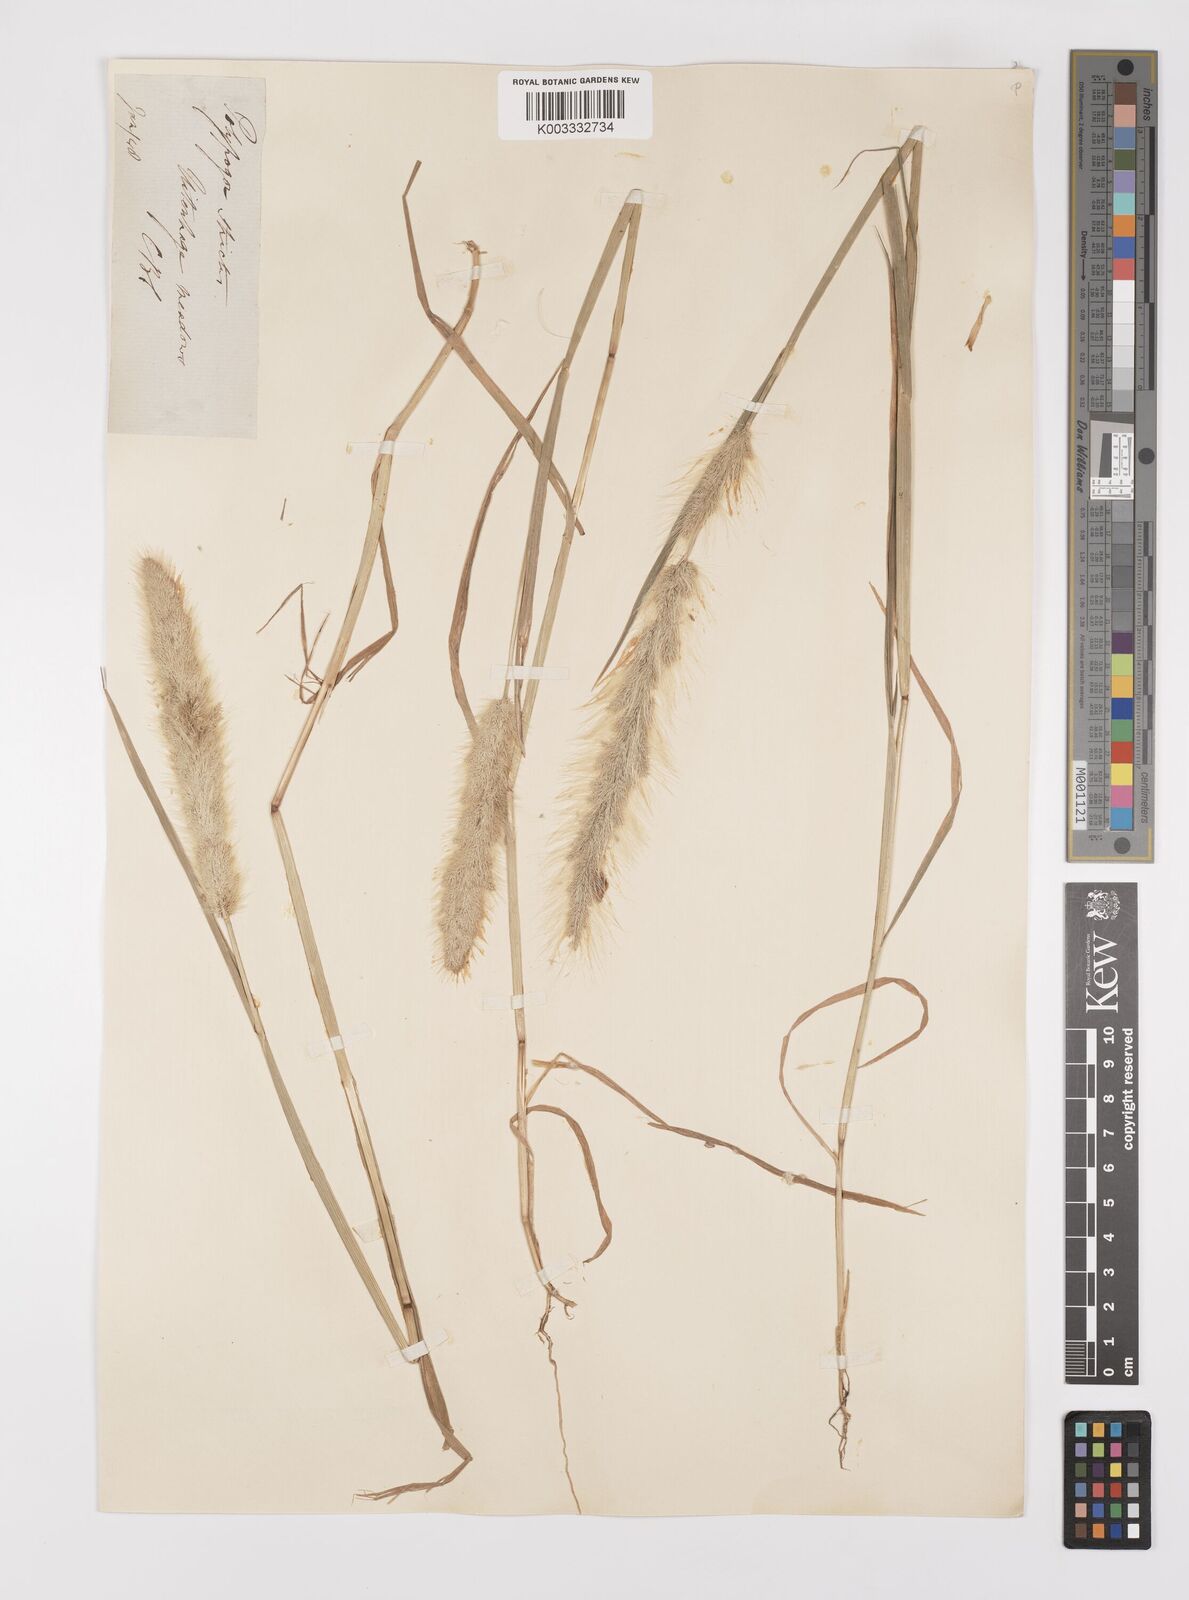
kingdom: Plantae
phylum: Tracheophyta
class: Liliopsida
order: Poales
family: Poaceae
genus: Polypogon
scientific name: Polypogon tenuis
